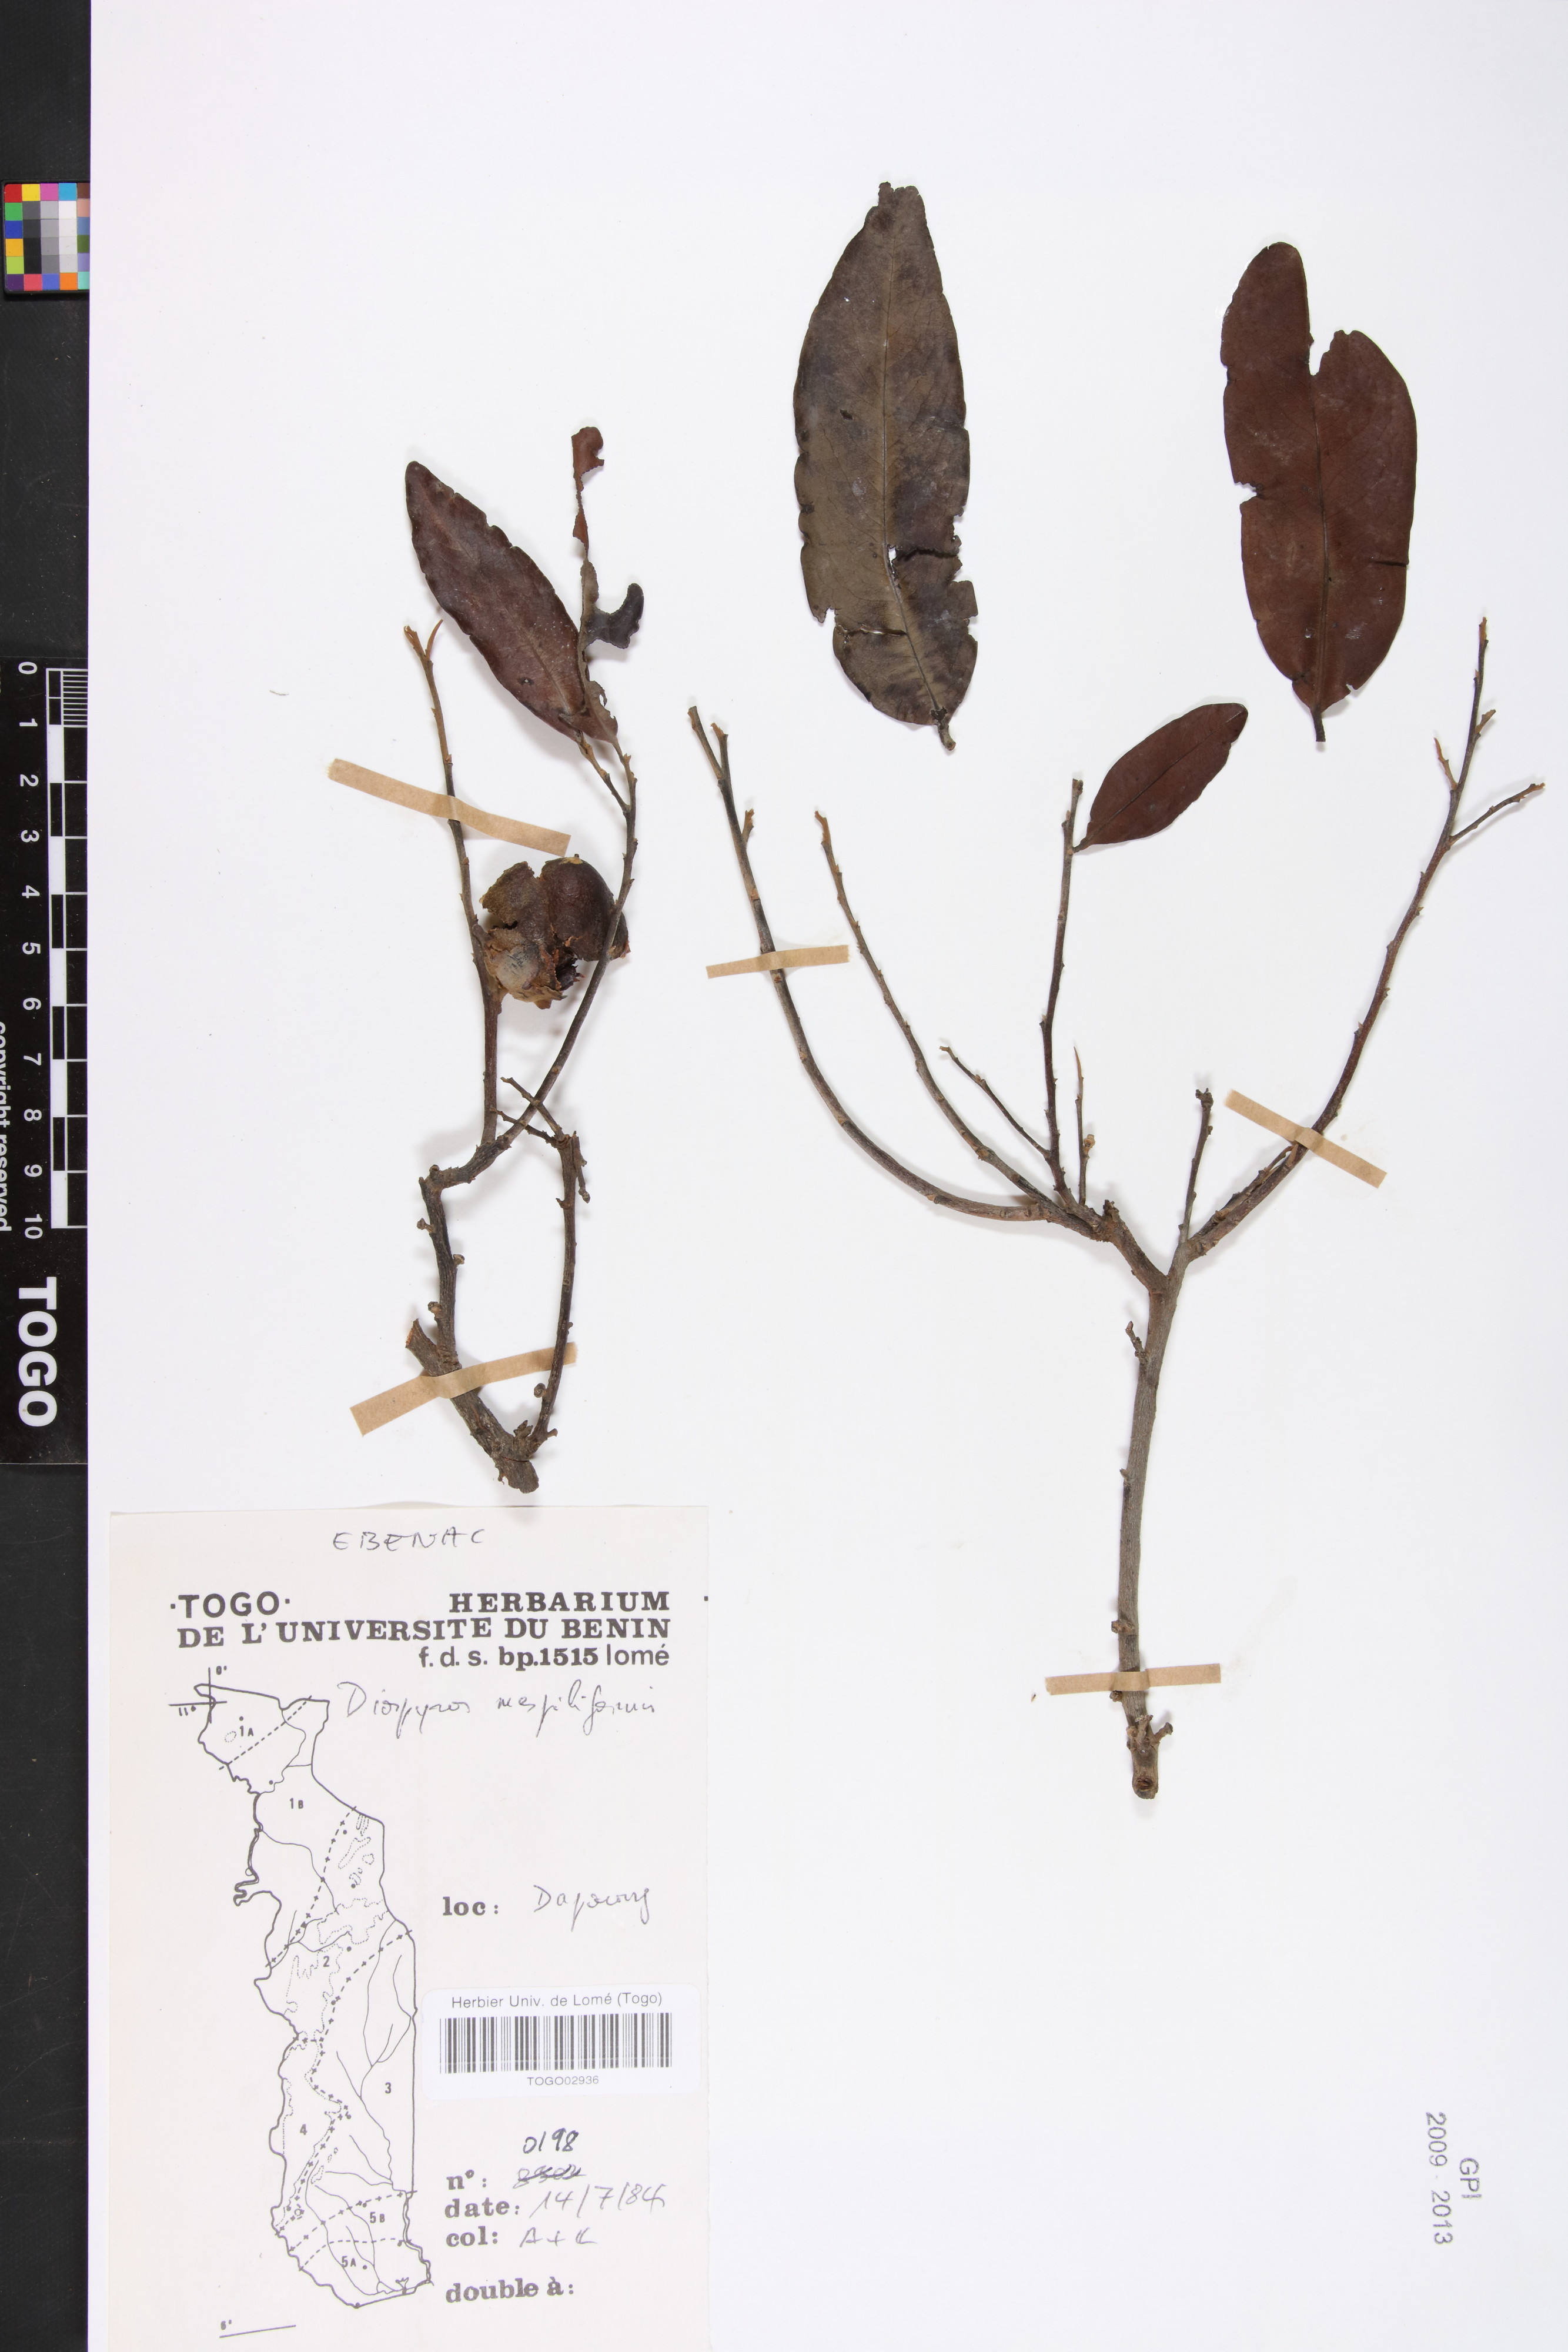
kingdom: Plantae
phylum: Tracheophyta
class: Magnoliopsida
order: Ericales
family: Ebenaceae
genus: Diospyros
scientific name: Diospyros mespiliformis
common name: Ebony diospyros
